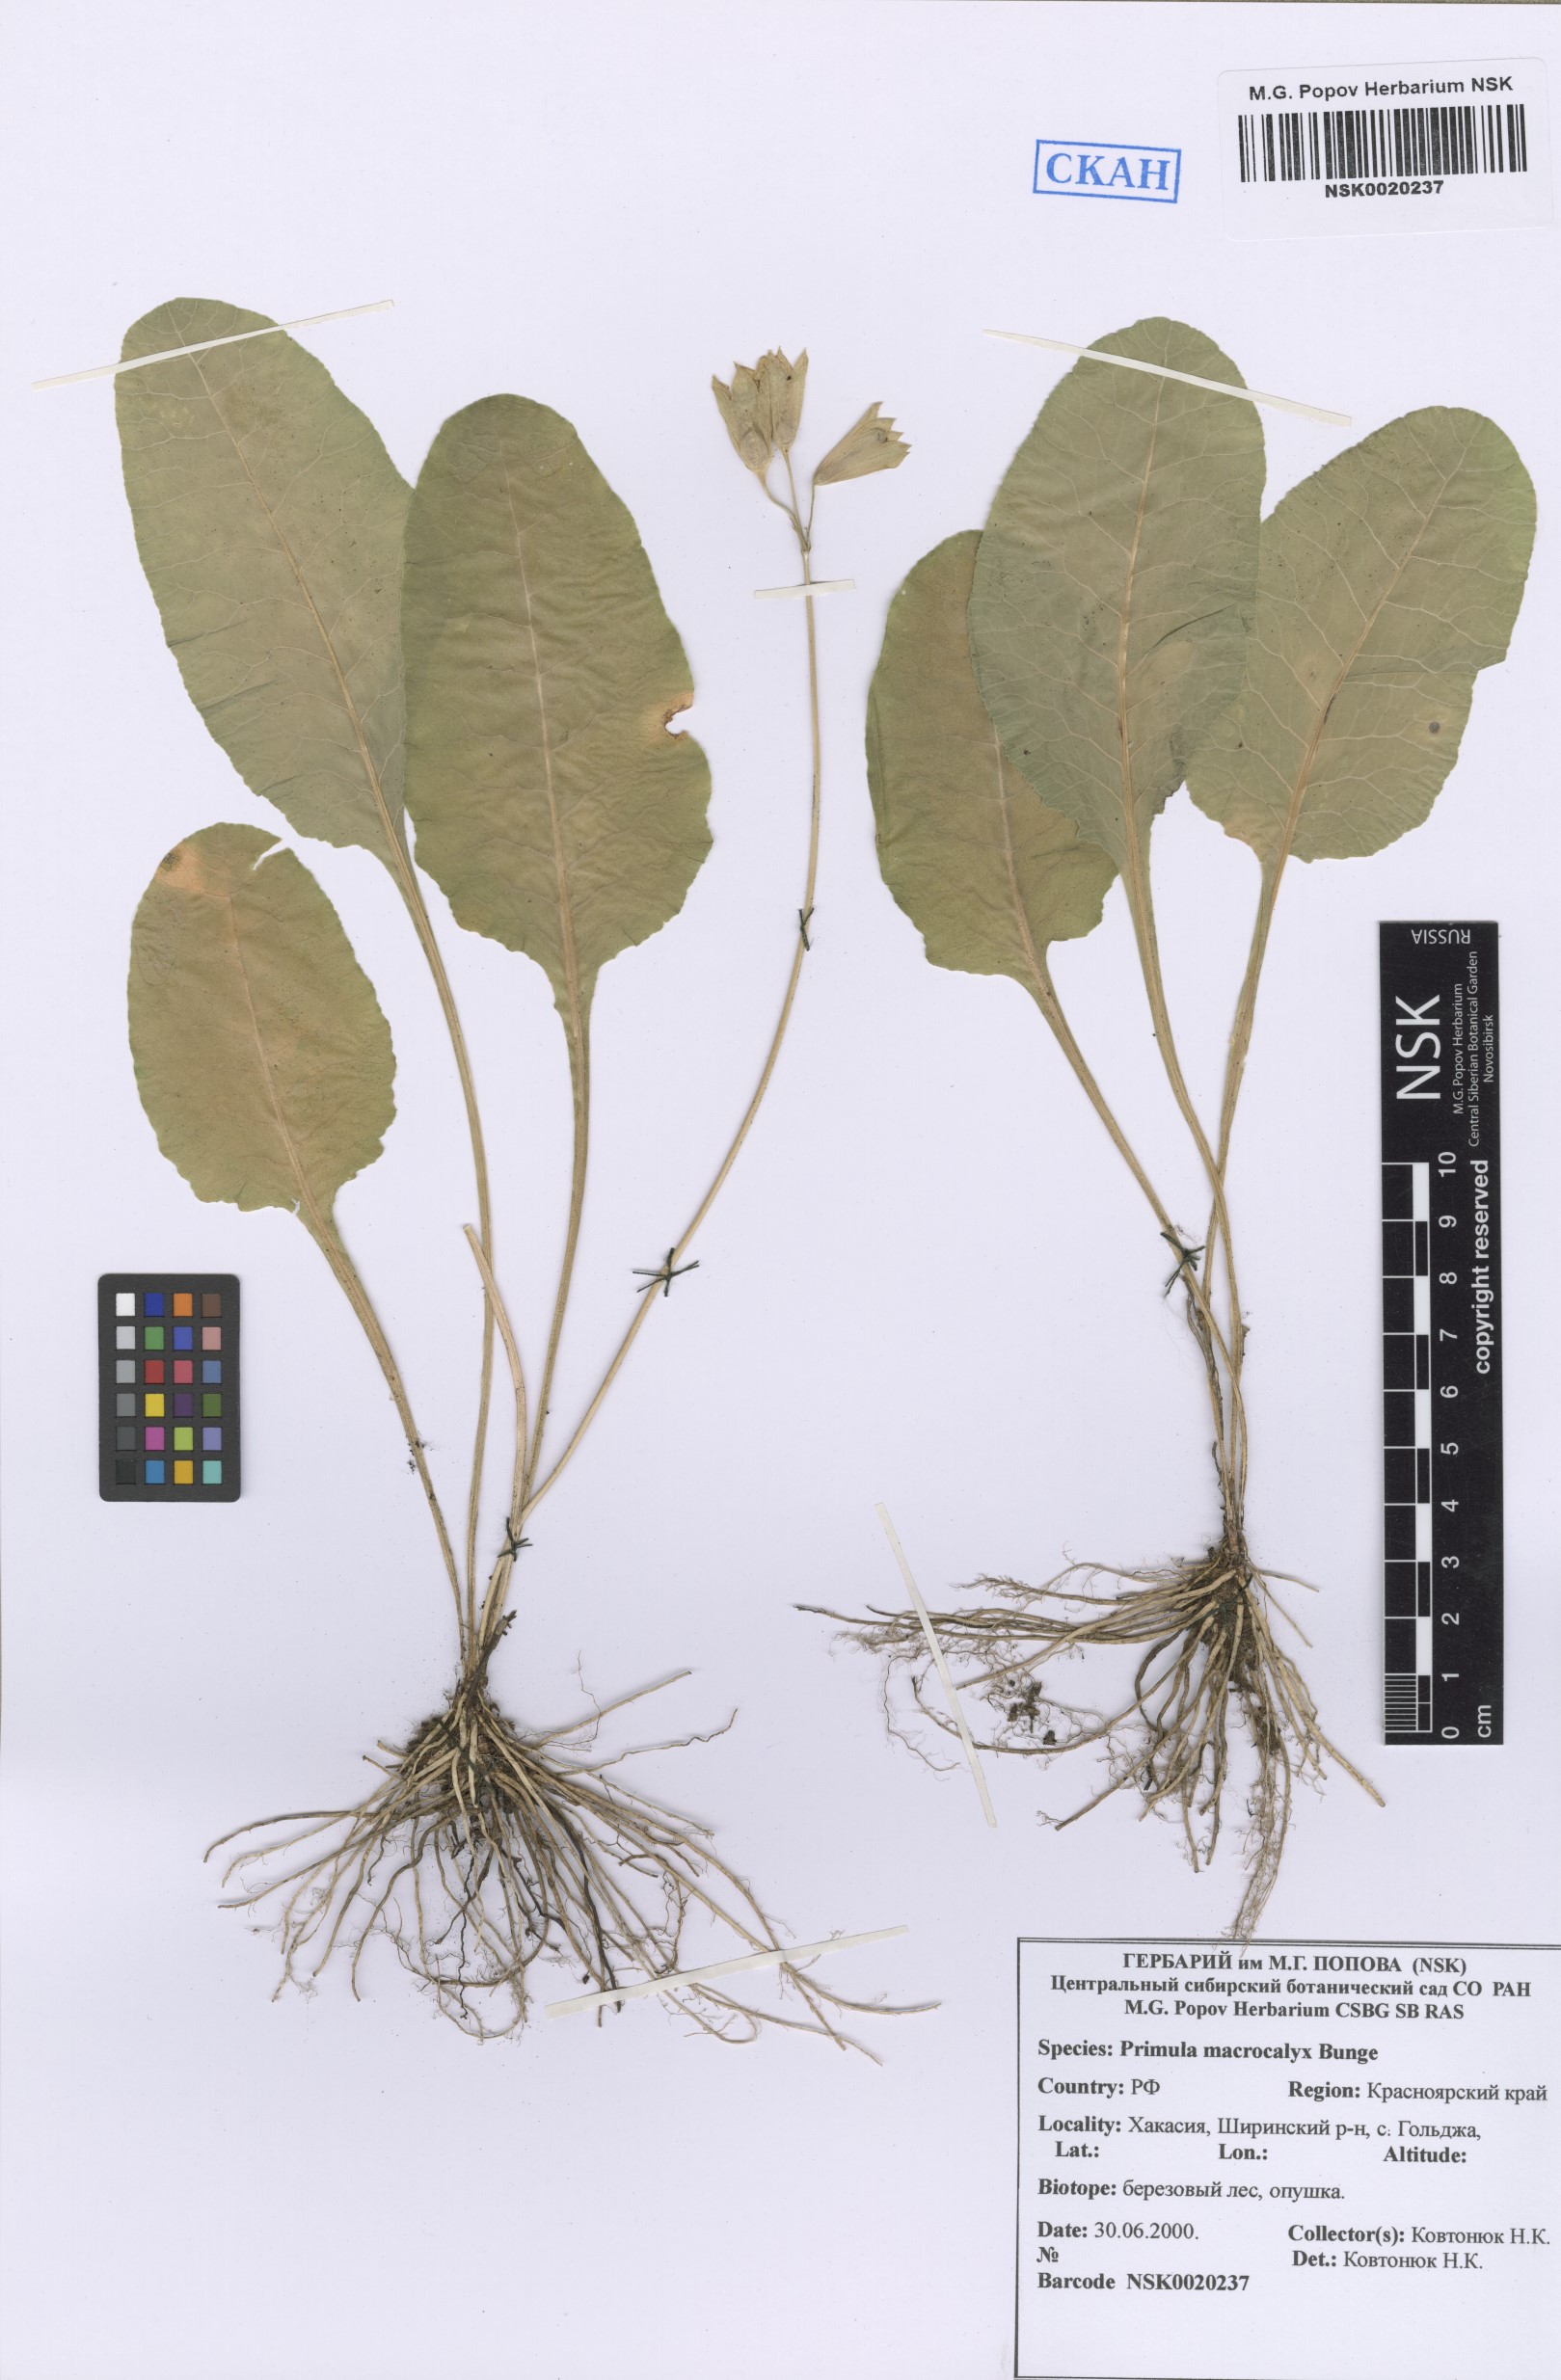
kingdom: Plantae
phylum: Tracheophyta
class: Magnoliopsida
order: Ericales
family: Primulaceae
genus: Primula
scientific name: Primula veris
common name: Cowslip
